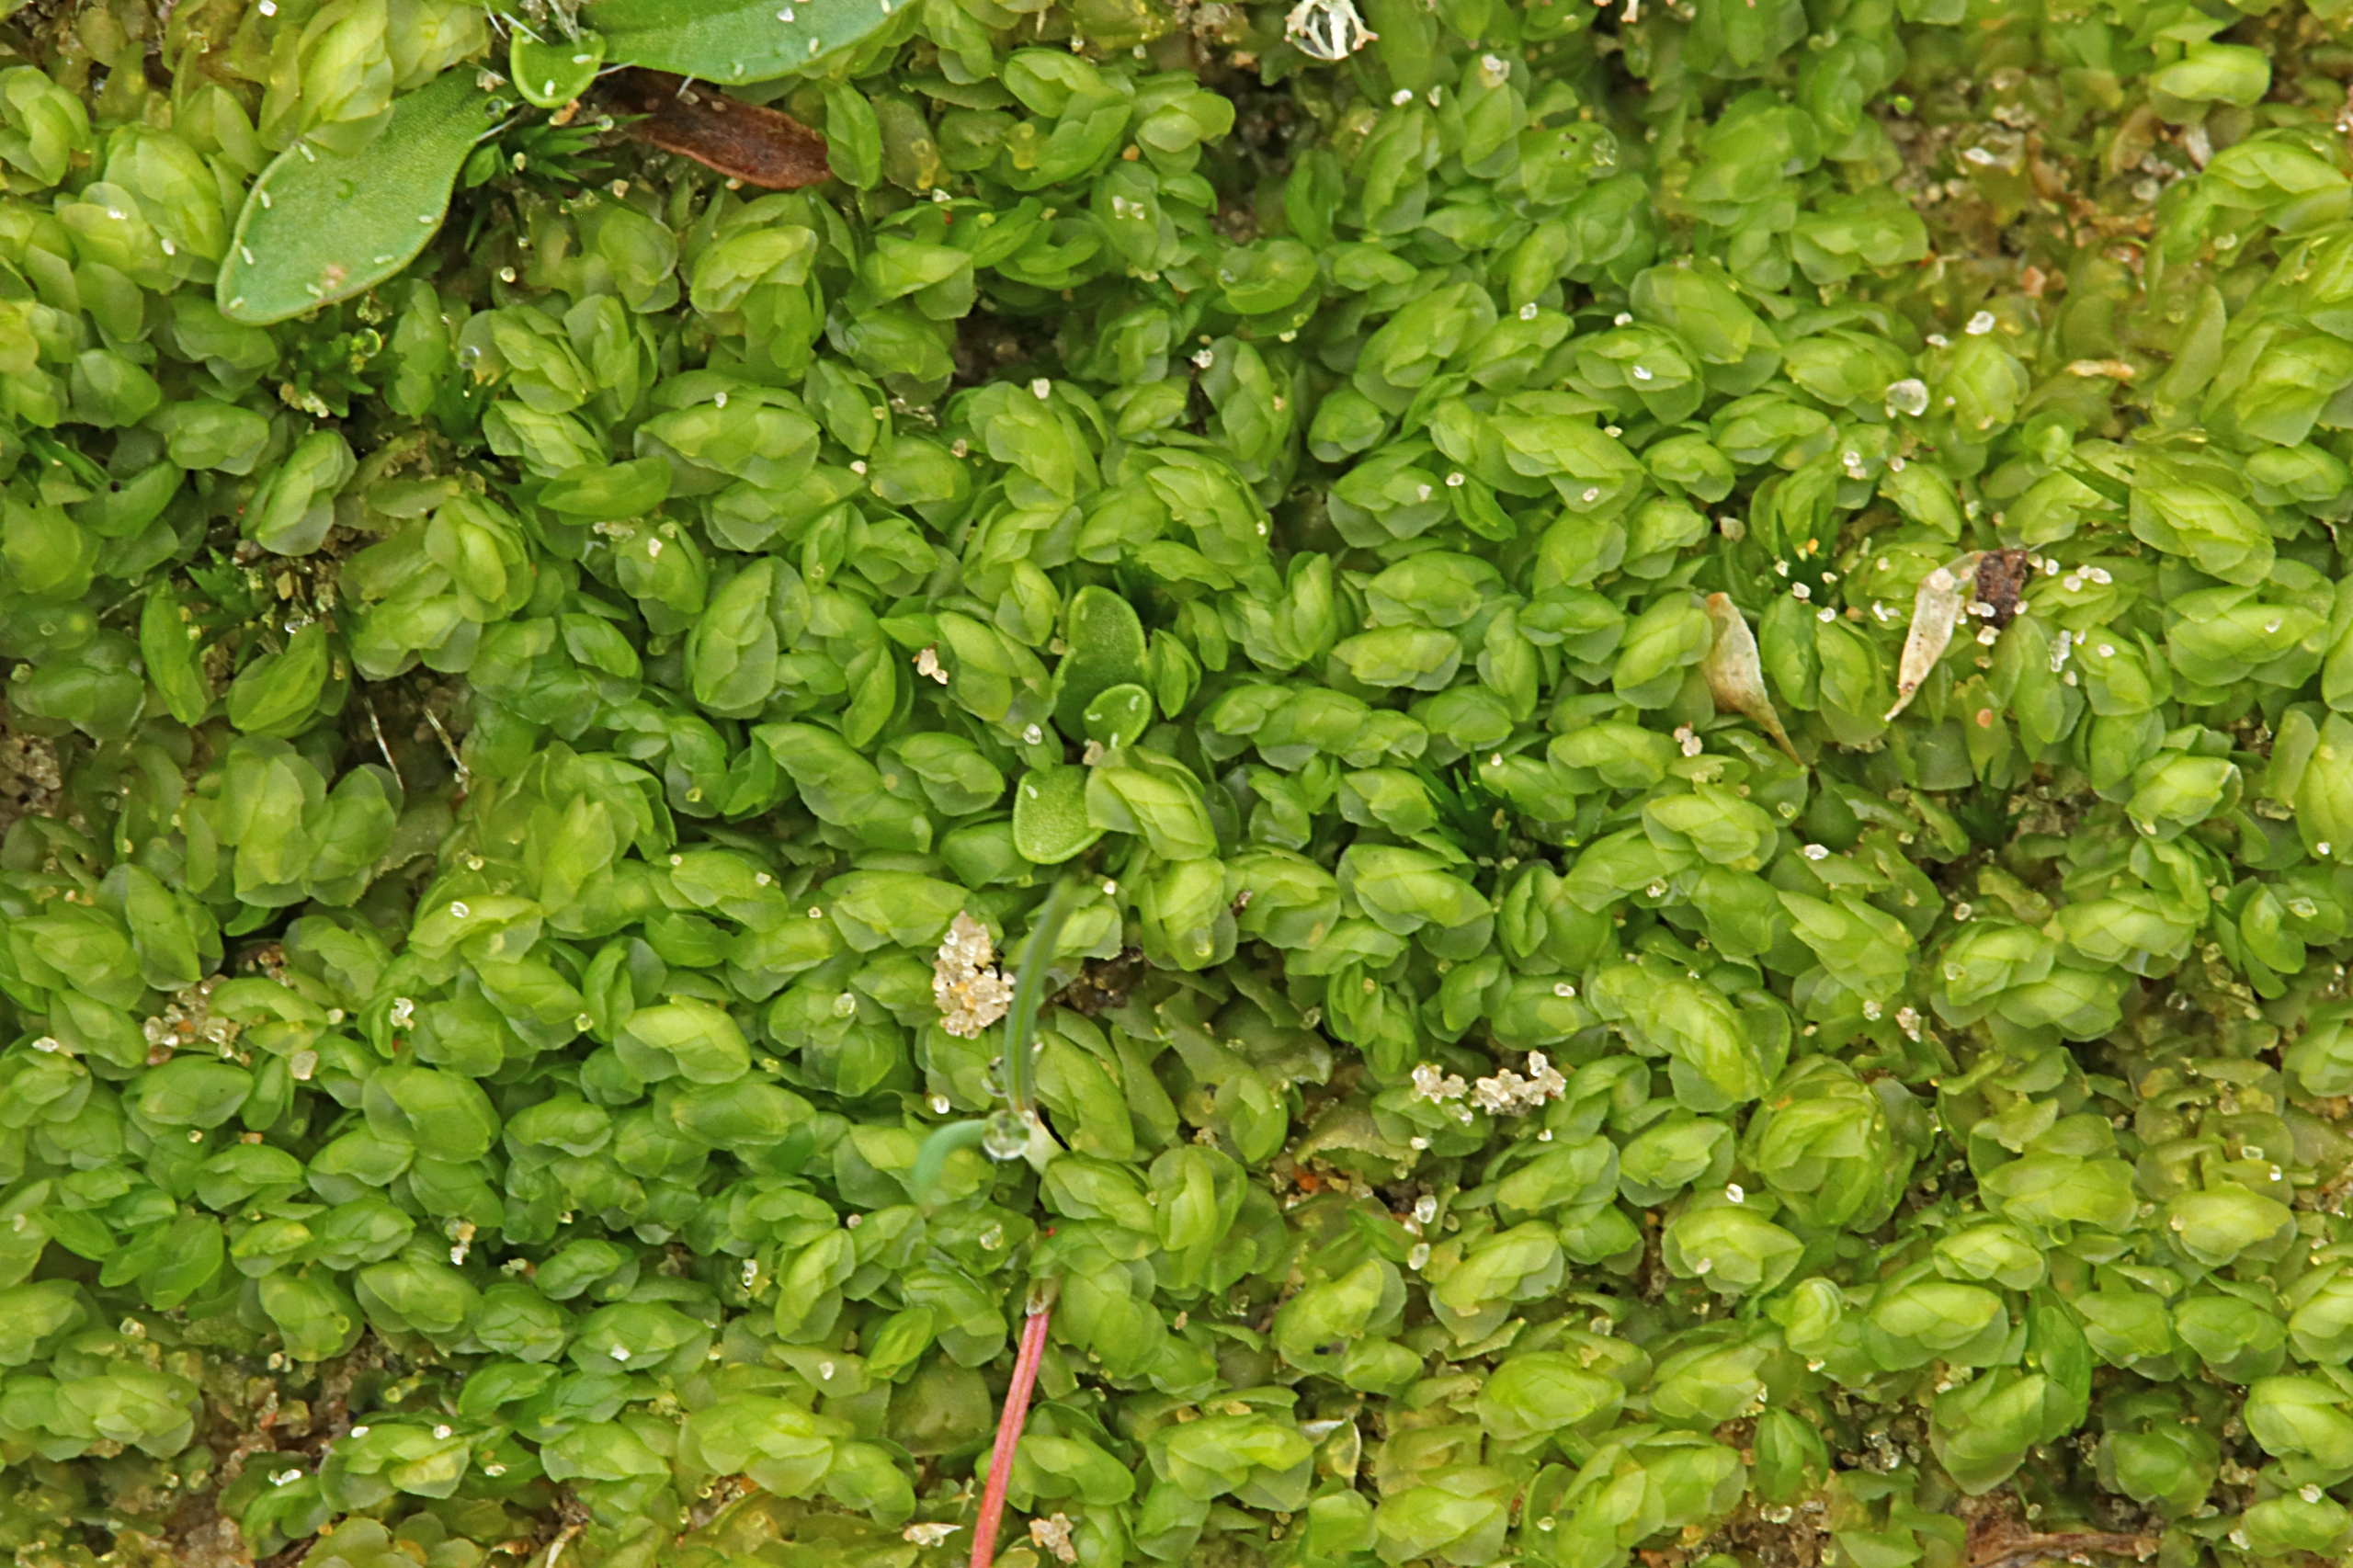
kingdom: Plantae
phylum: Marchantiophyta
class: Jungermanniopsida
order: Jungermanniales
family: Scapaniaceae
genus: Scapania
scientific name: Scapania compacta
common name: Tæt tveblad
